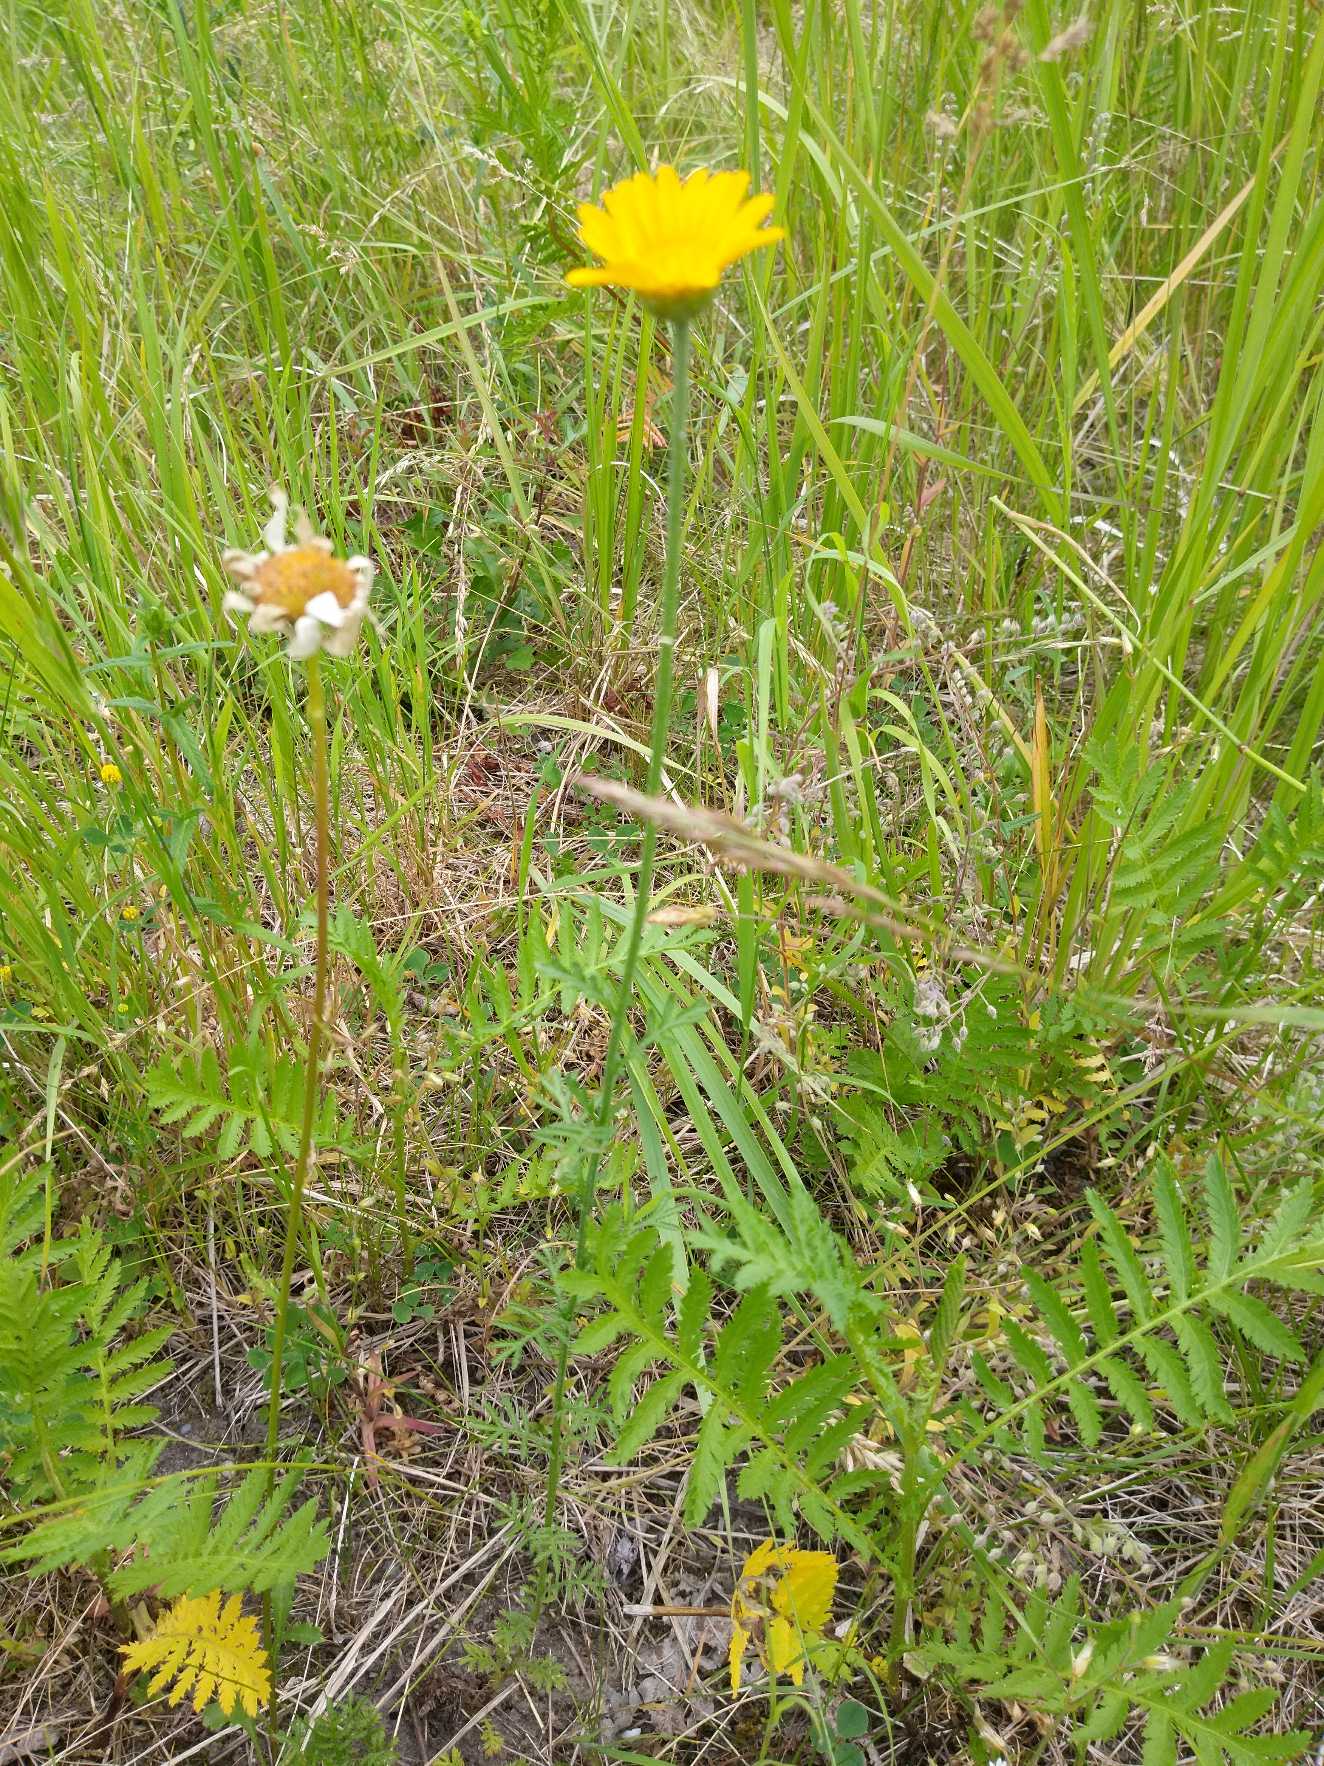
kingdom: Plantae
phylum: Tracheophyta
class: Magnoliopsida
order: Asterales
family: Asteraceae
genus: Cota
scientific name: Cota tinctoria
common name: Farve-gåseurt
